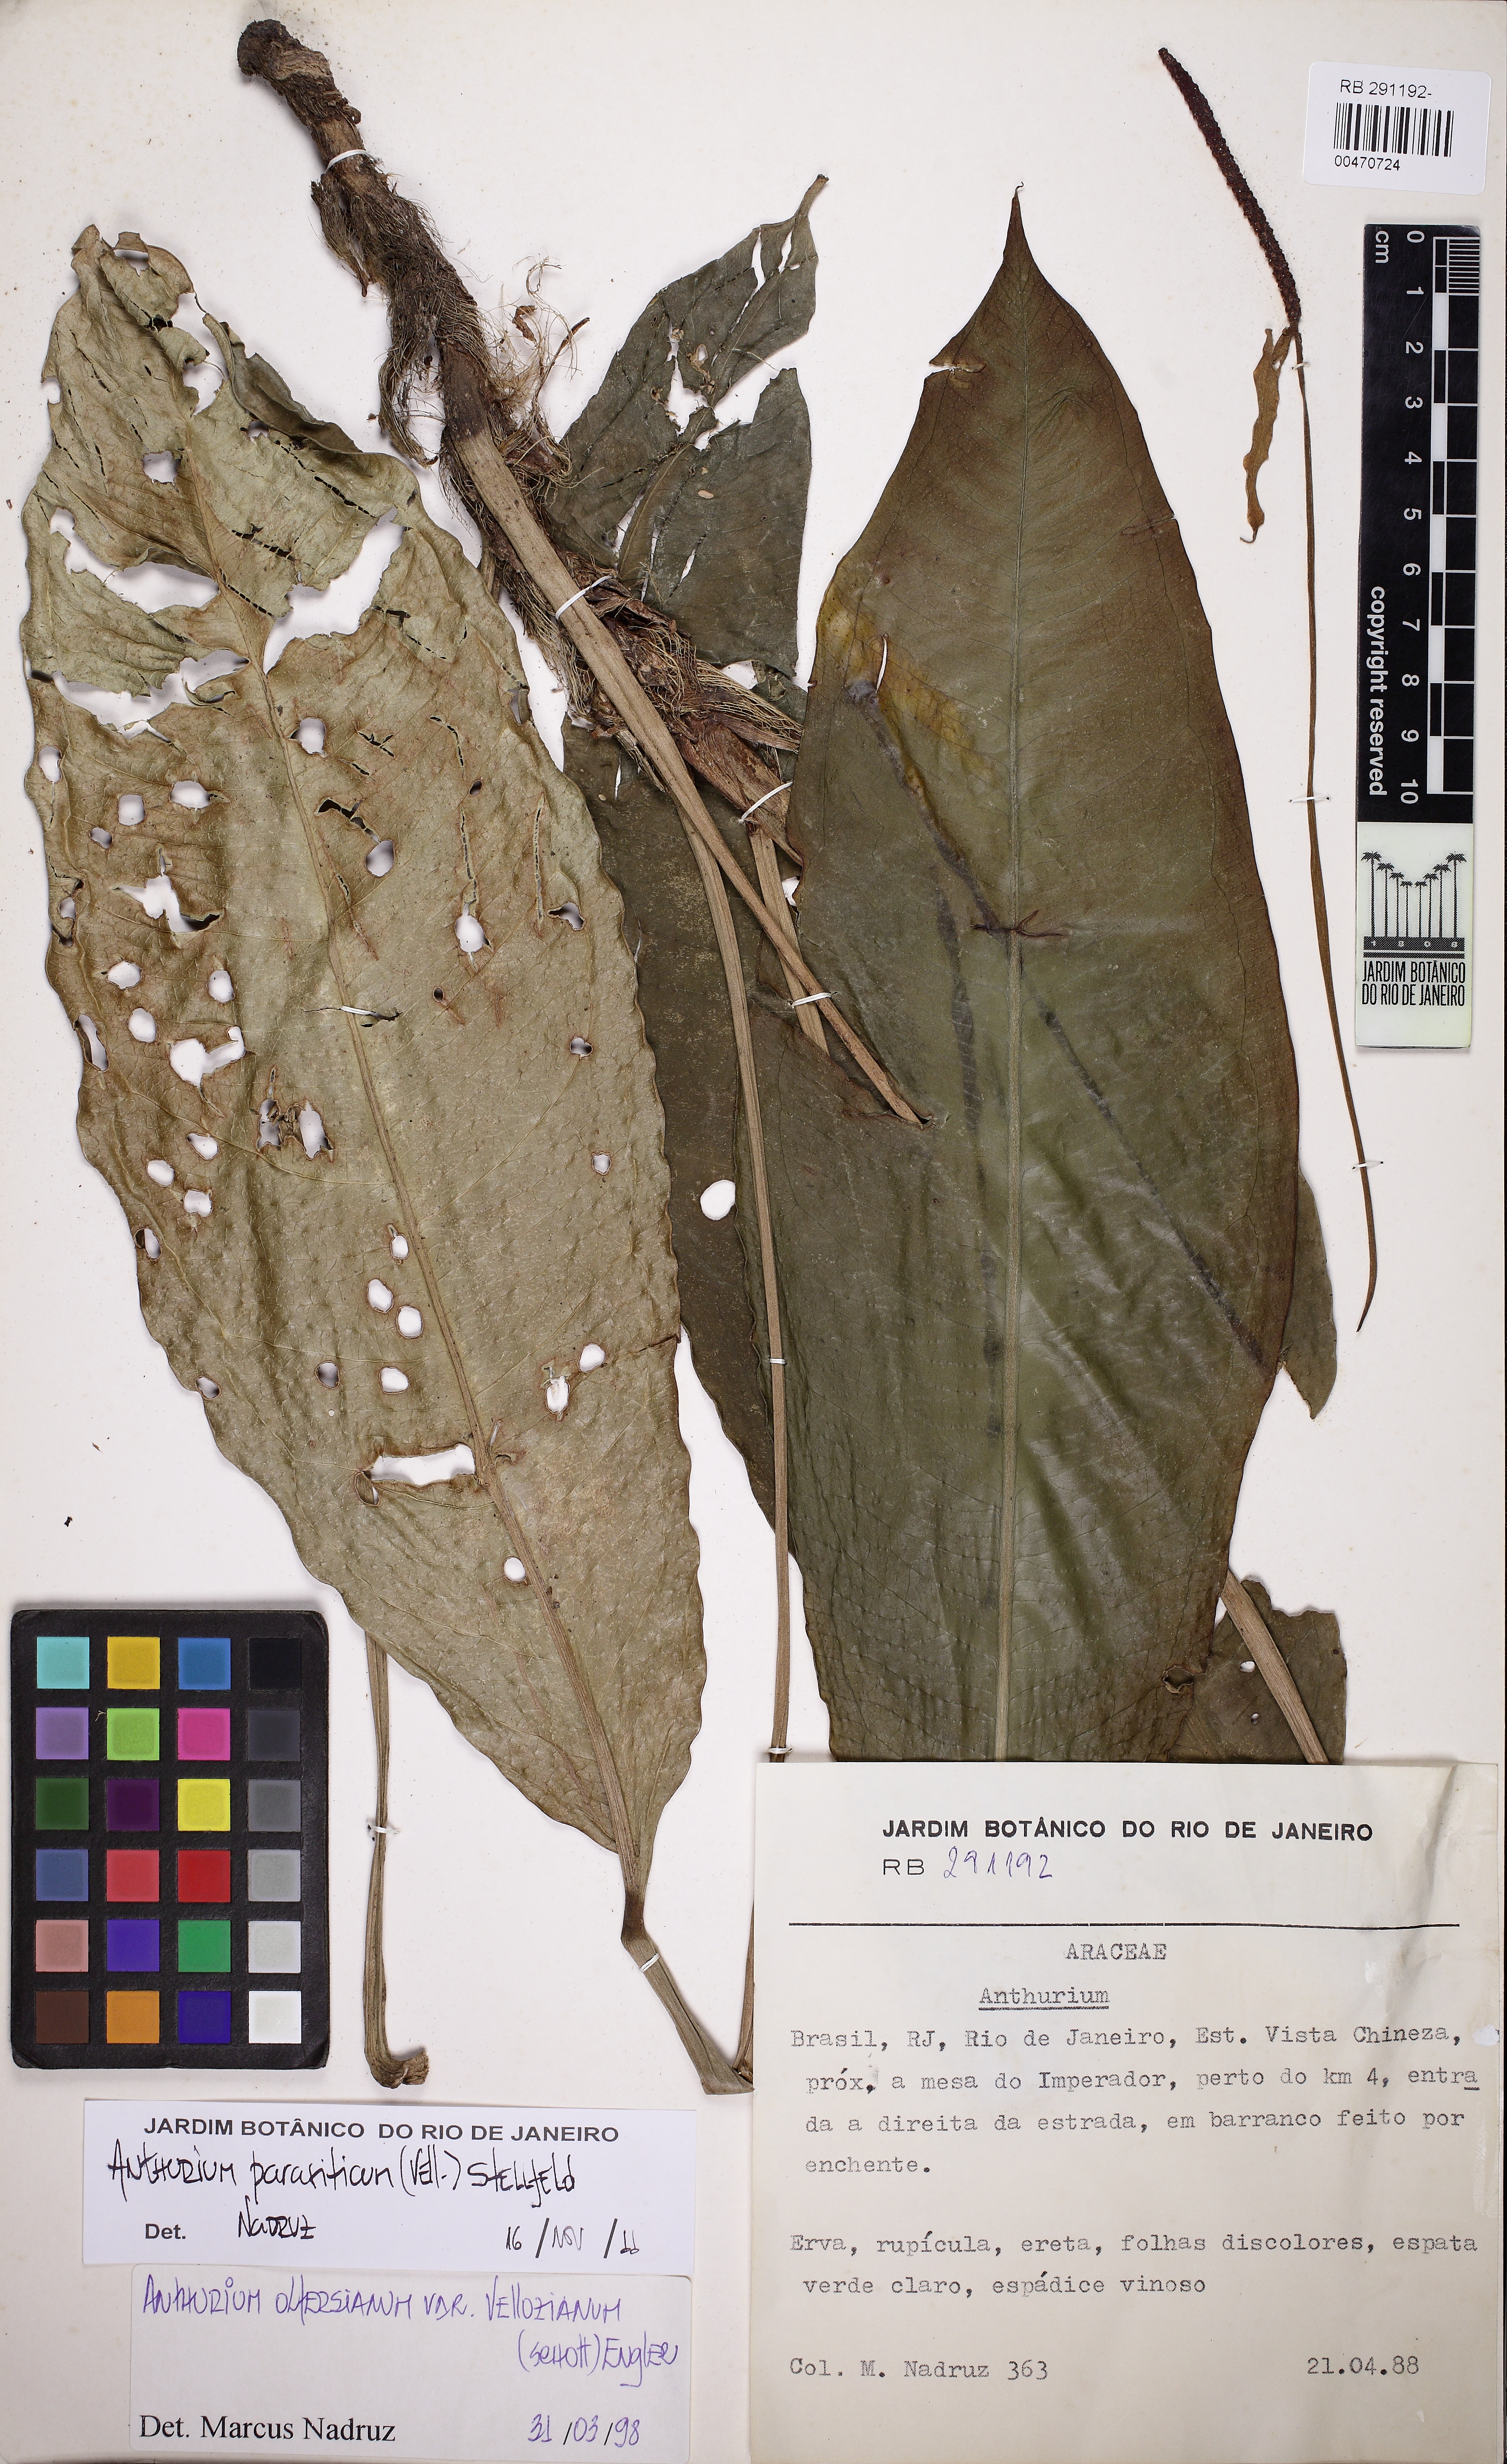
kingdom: Plantae
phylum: Tracheophyta
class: Liliopsida
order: Alismatales
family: Araceae
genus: Anthurium
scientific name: Anthurium parasiticum
